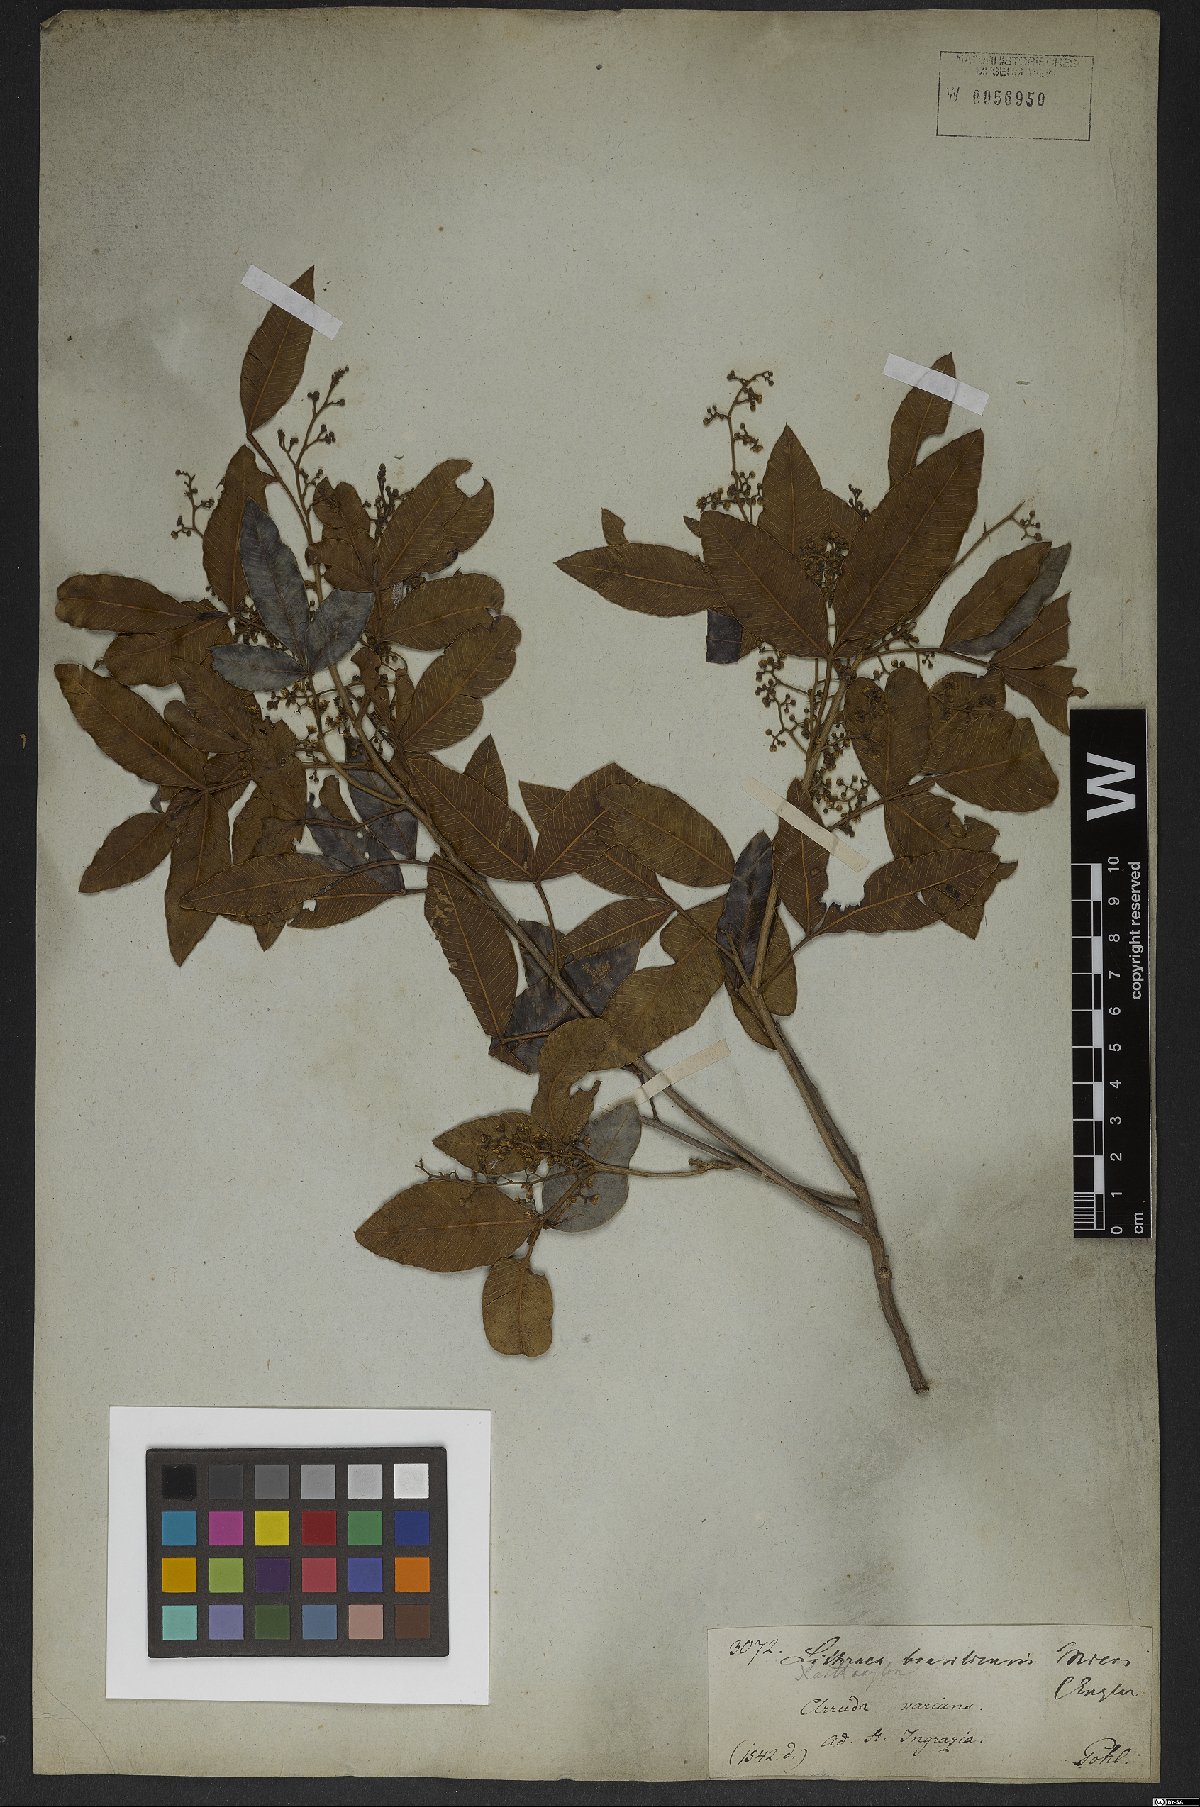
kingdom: Plantae
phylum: Tracheophyta
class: Magnoliopsida
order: Sapindales
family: Anacardiaceae
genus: Lithraea
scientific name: Lithraea brasiliensis
